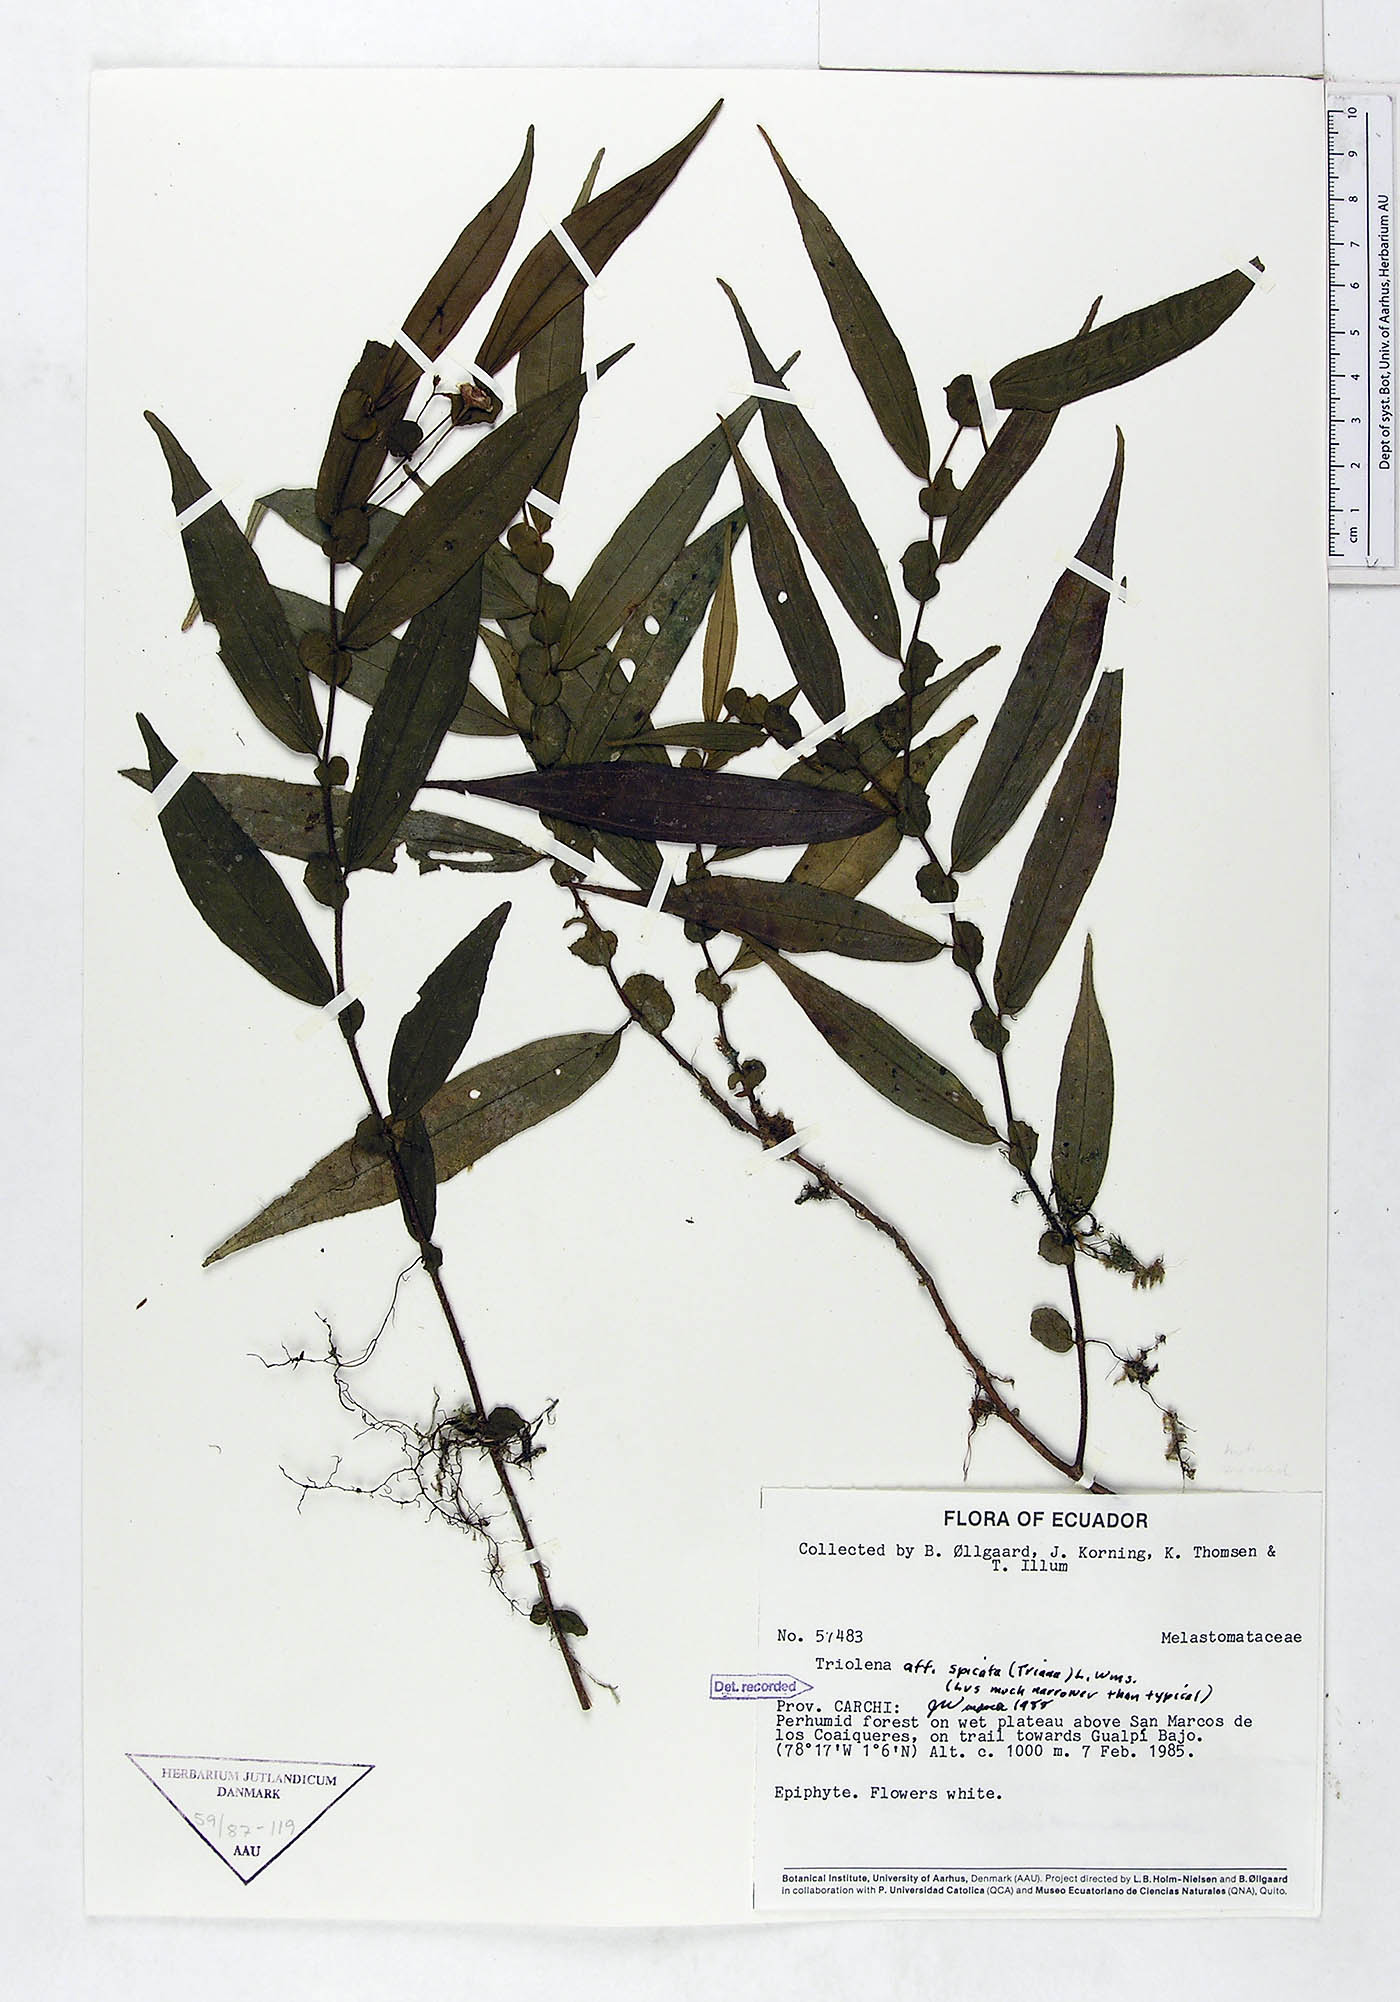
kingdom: Plantae
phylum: Tracheophyta
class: Magnoliopsida
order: Myrtales
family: Melastomataceae
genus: Triolena
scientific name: Triolena spicata
